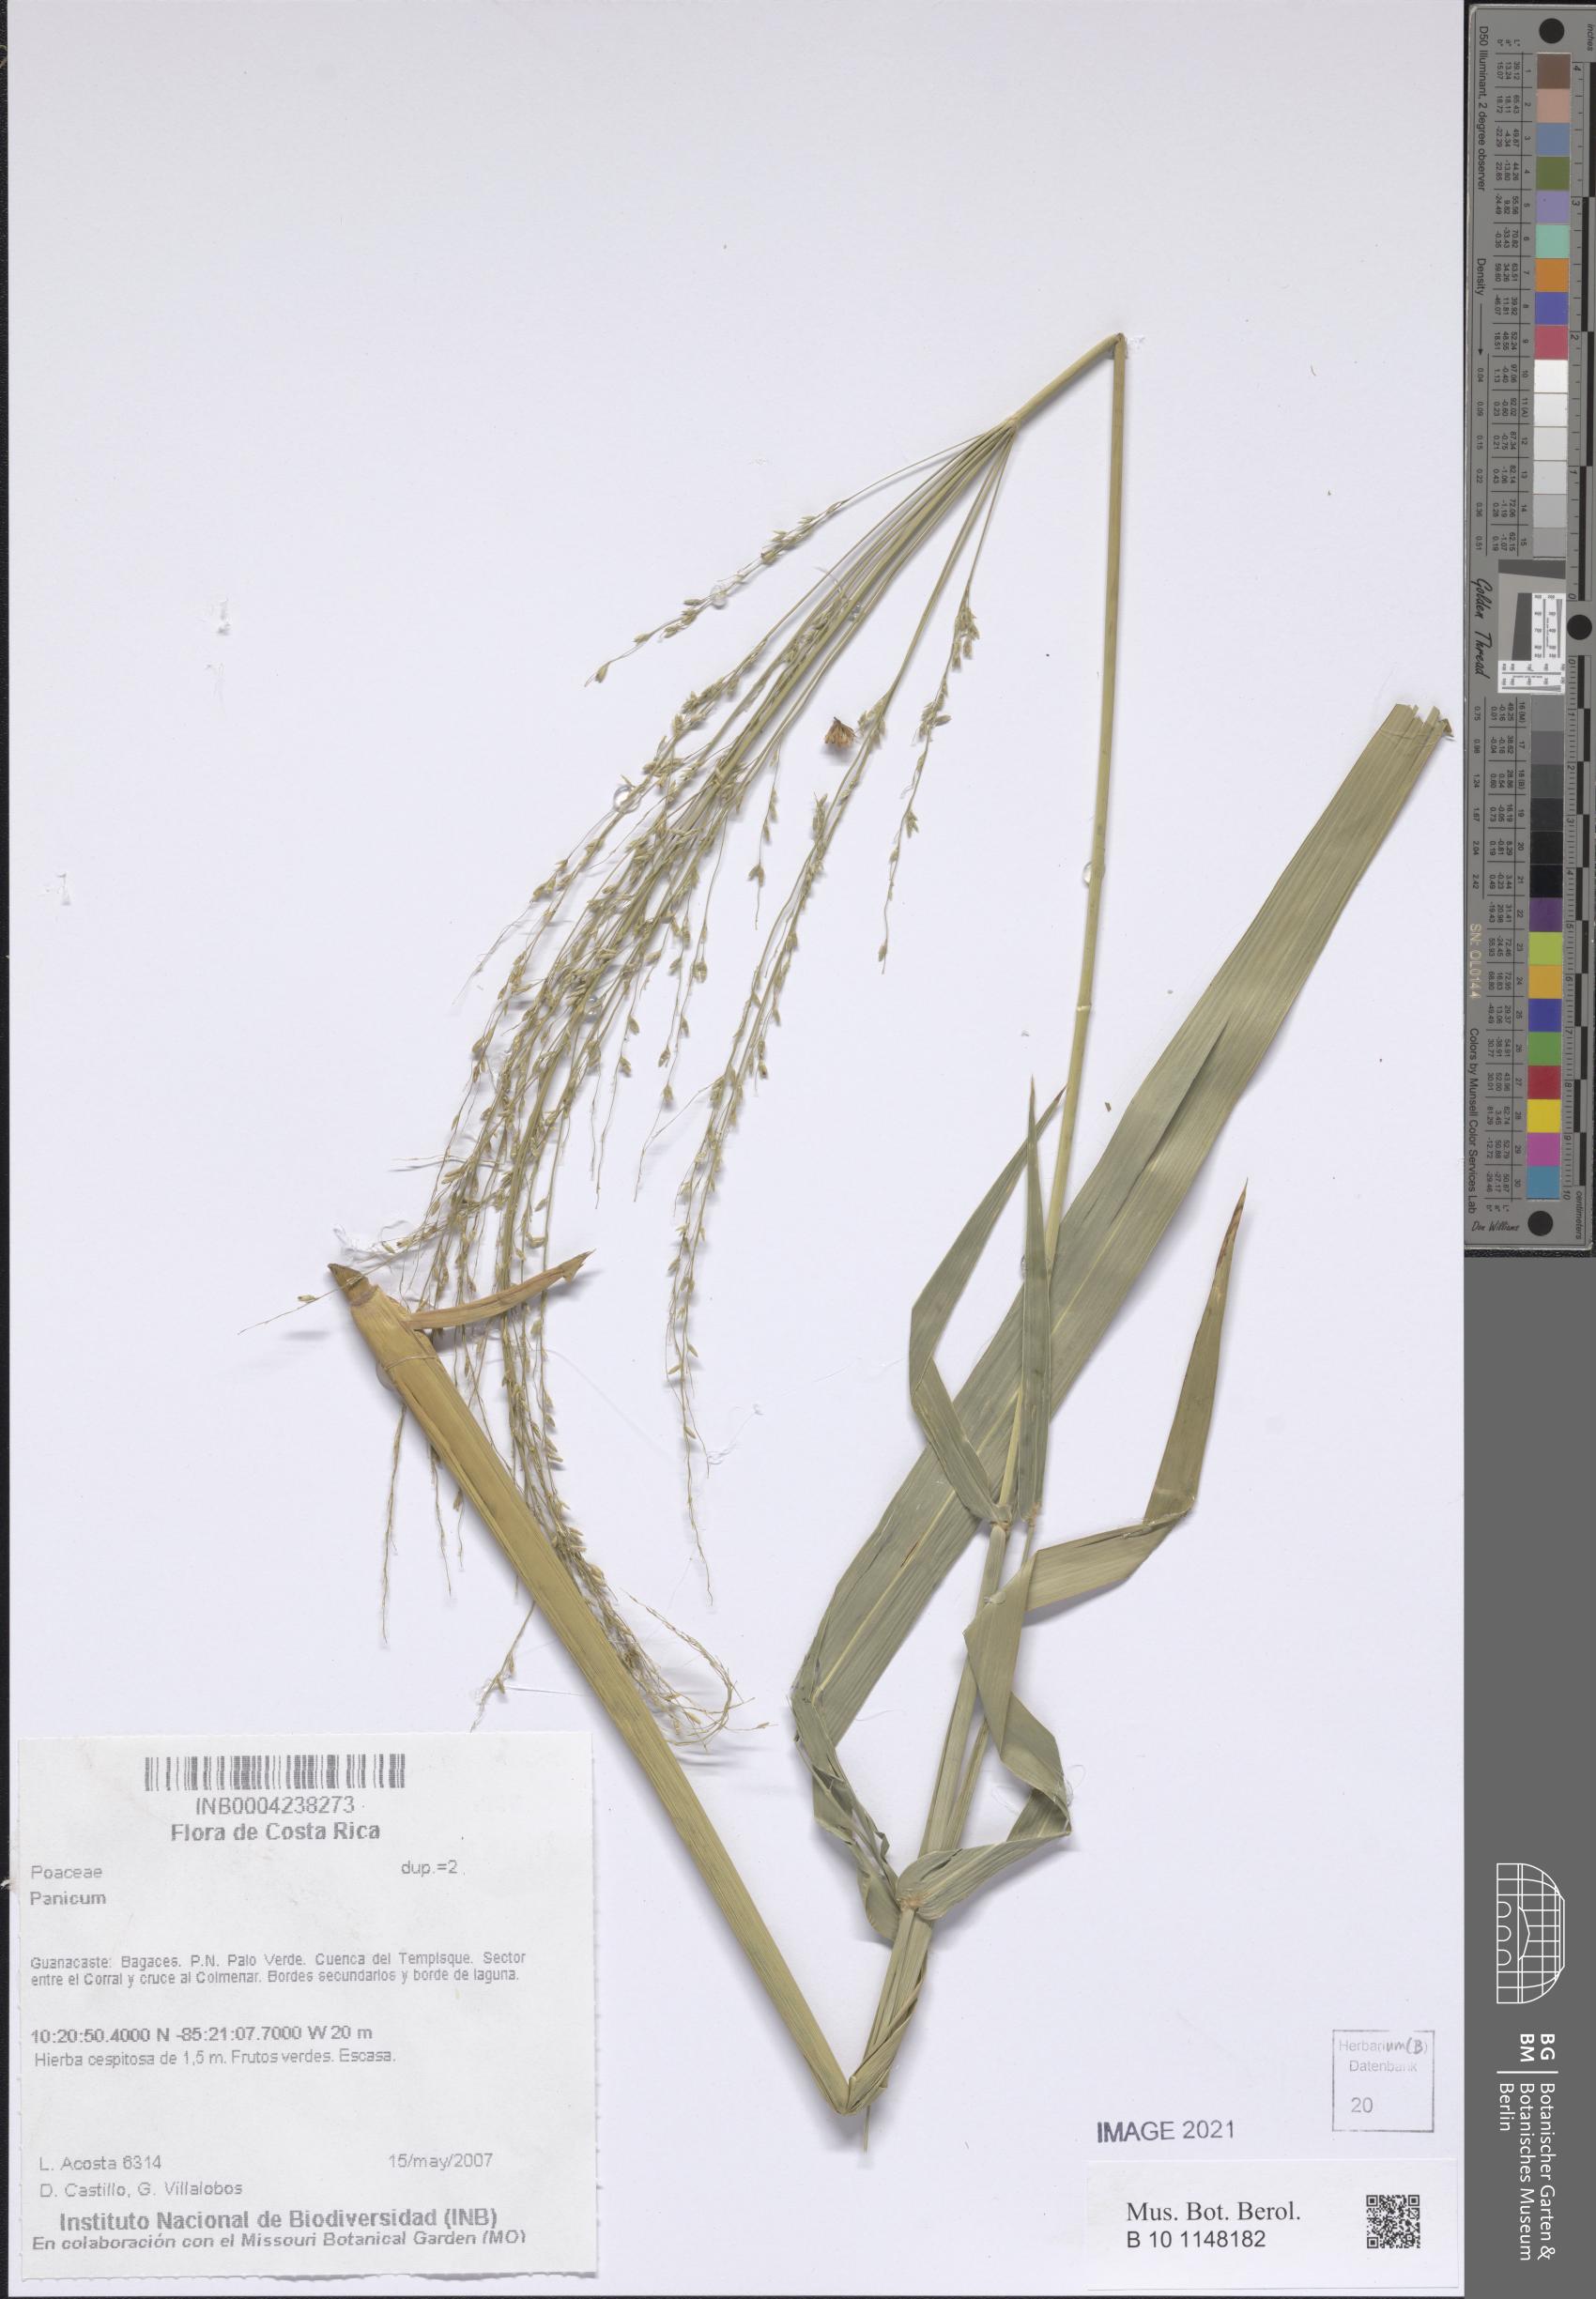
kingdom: Plantae
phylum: Tracheophyta
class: Liliopsida
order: Poales
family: Poaceae
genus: Panicum
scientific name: Panicum
